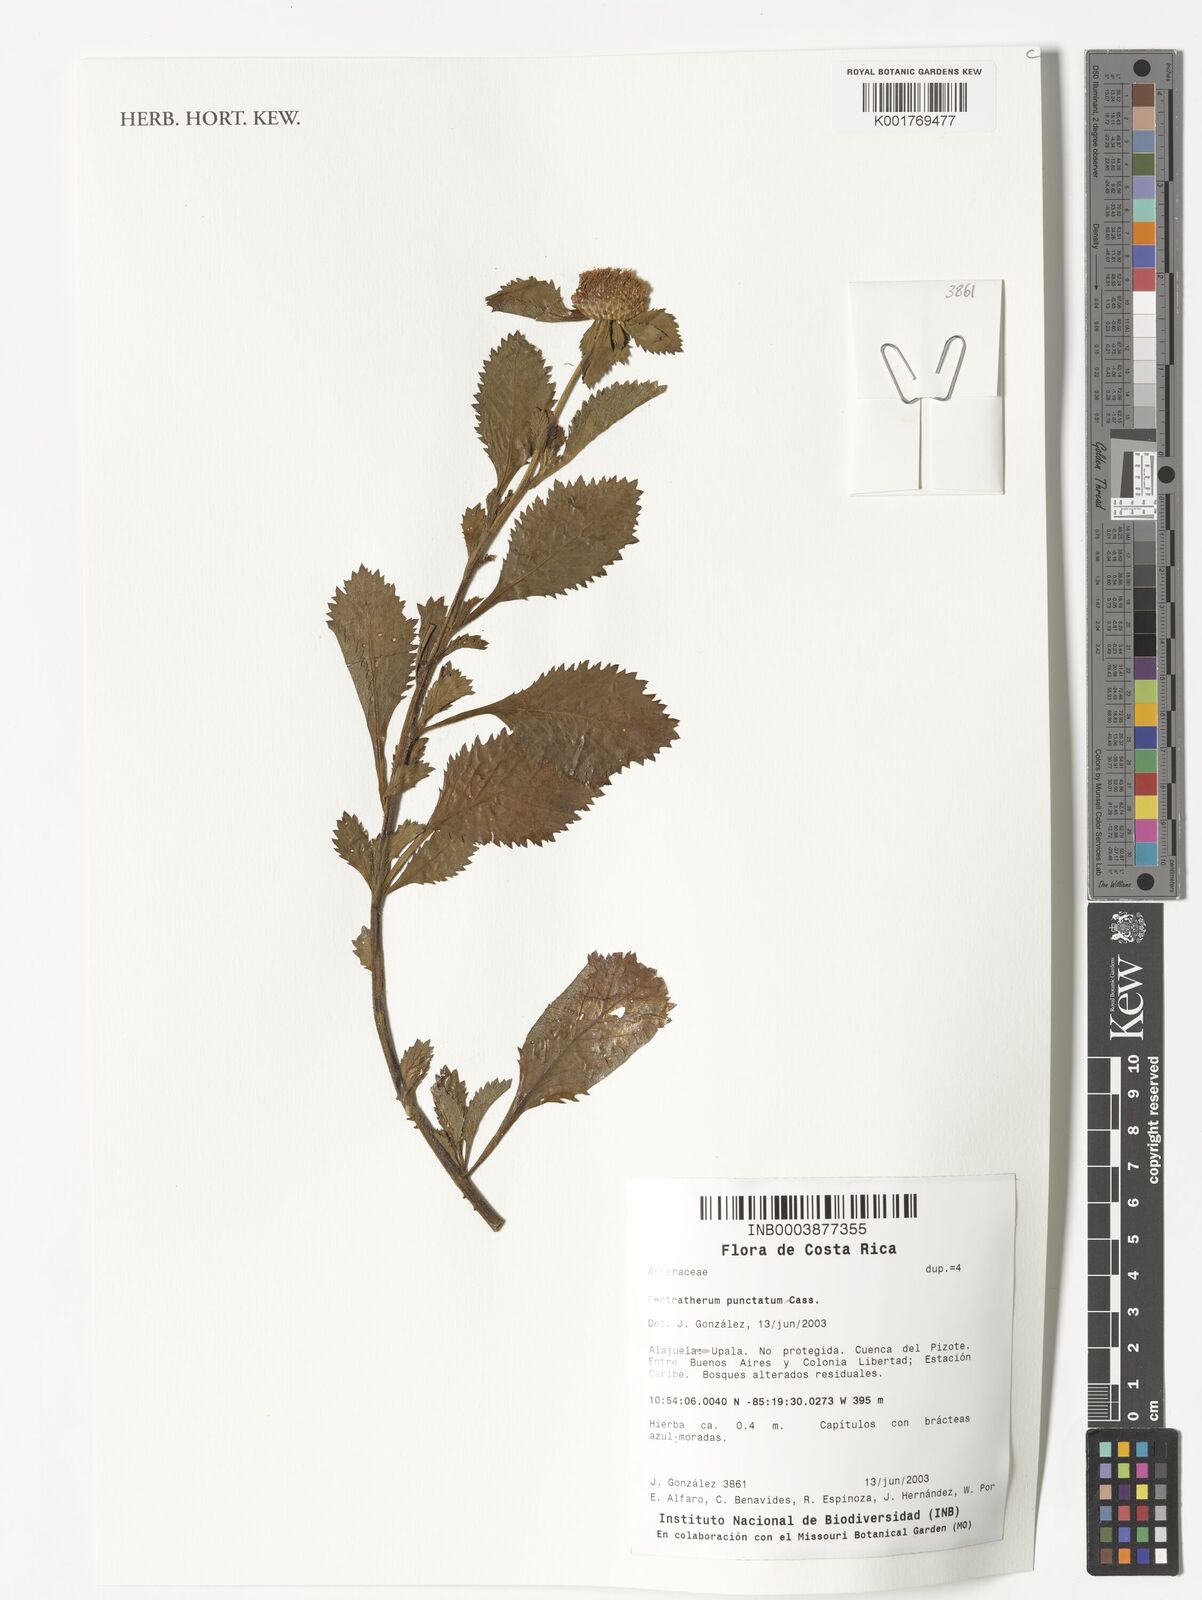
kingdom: Plantae
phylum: Tracheophyta
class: Magnoliopsida
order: Asterales
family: Asteraceae
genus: Centratherum
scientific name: Centratherum punctatum
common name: Larkdaisy
